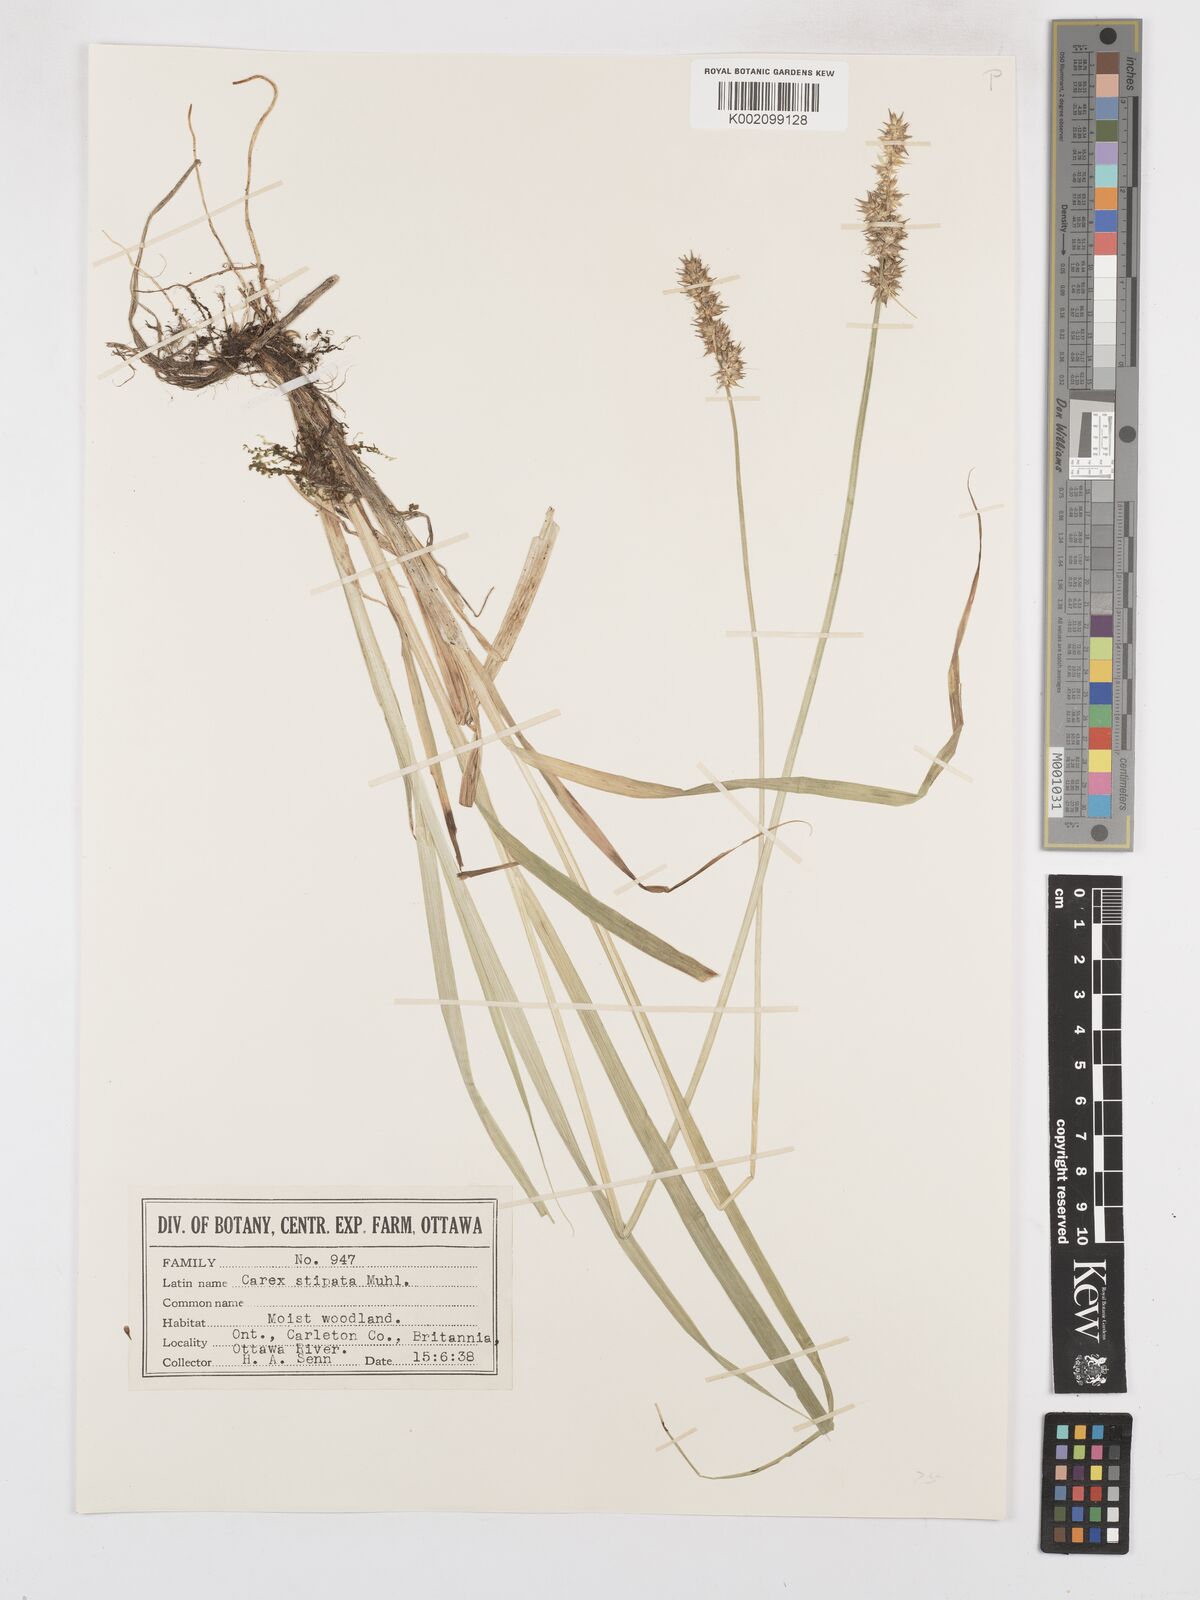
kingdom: Plantae
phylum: Tracheophyta
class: Liliopsida
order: Poales
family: Cyperaceae
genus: Carex
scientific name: Carex stipata
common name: Awl-fruited sedge
